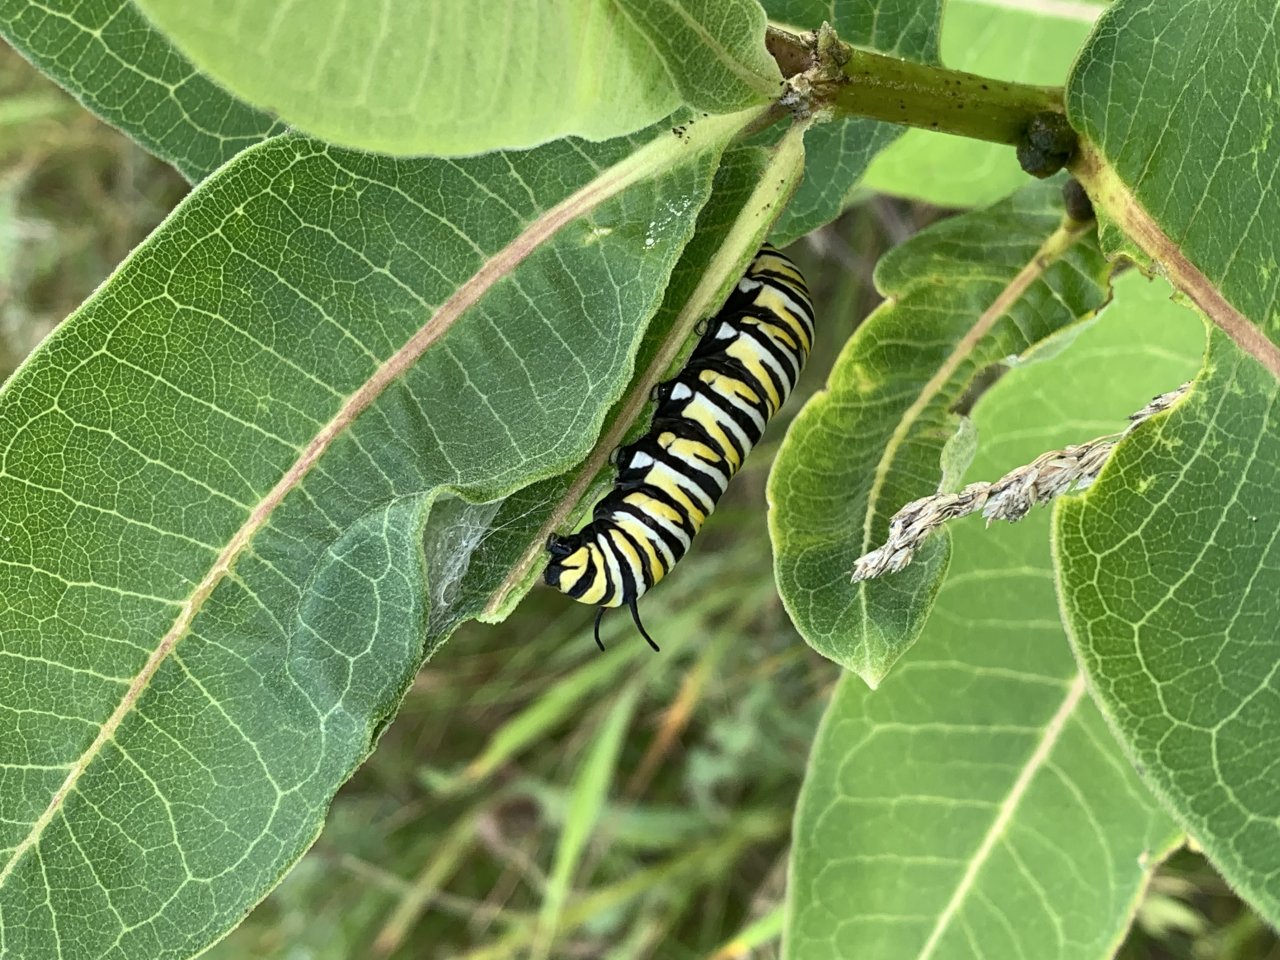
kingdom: Animalia
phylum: Arthropoda
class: Insecta
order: Lepidoptera
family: Nymphalidae
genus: Danaus
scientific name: Danaus plexippus
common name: Monarch
